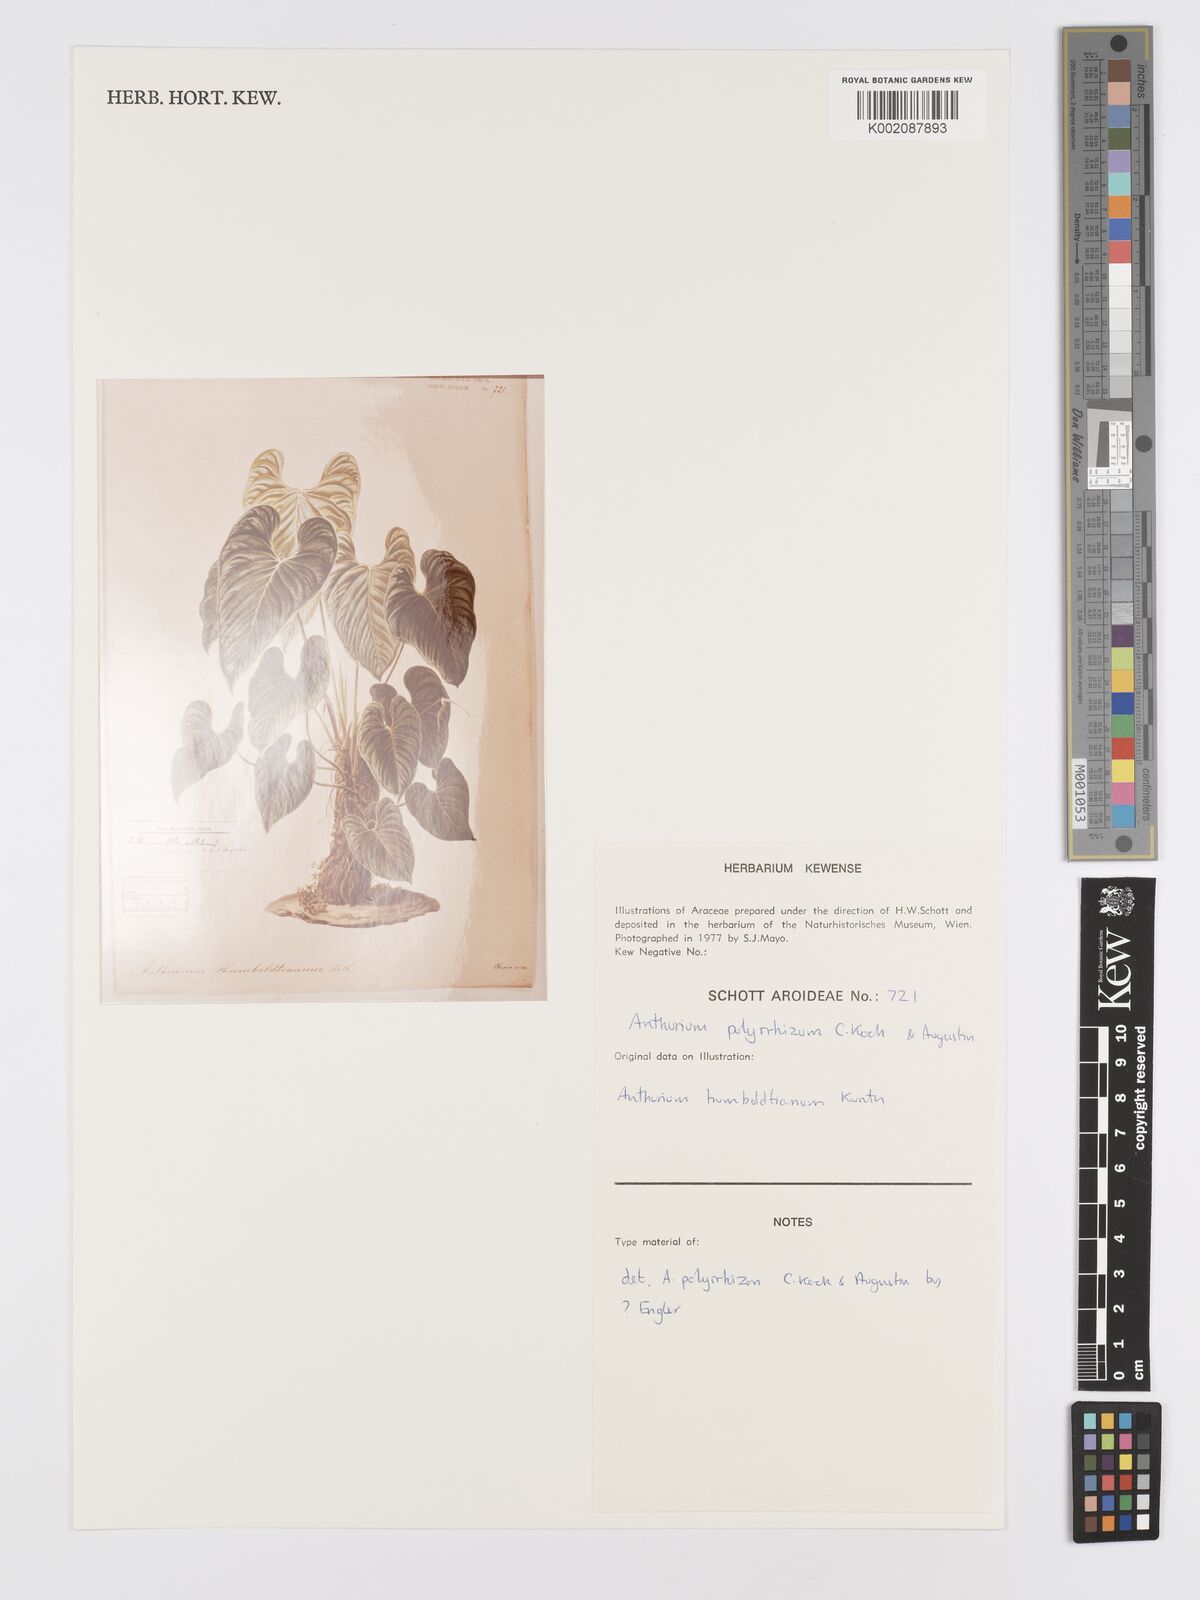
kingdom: Plantae
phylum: Tracheophyta
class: Liliopsida
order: Alismatales
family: Araceae
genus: Anthurium
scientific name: Anthurium sagittatum
